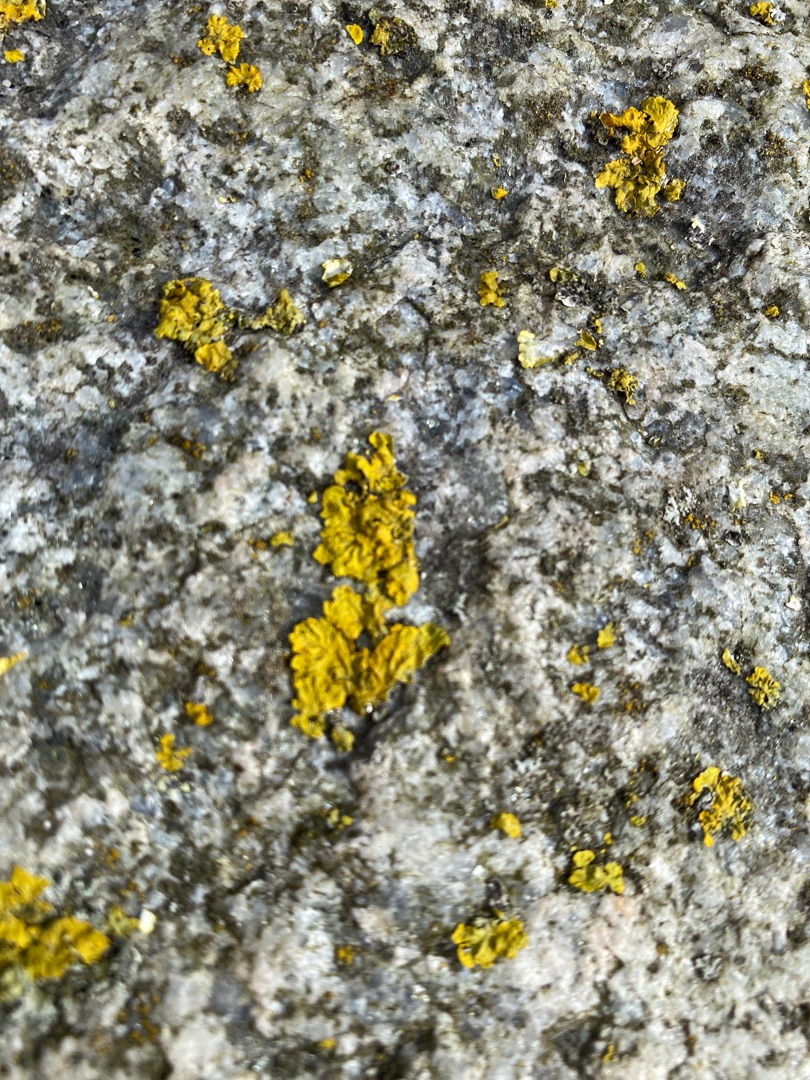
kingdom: Fungi
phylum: Ascomycota
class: Lecanoromycetes
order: Teloschistales
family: Teloschistaceae
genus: Xanthoria
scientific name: Xanthoria parietina
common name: Almindelig væggelav
